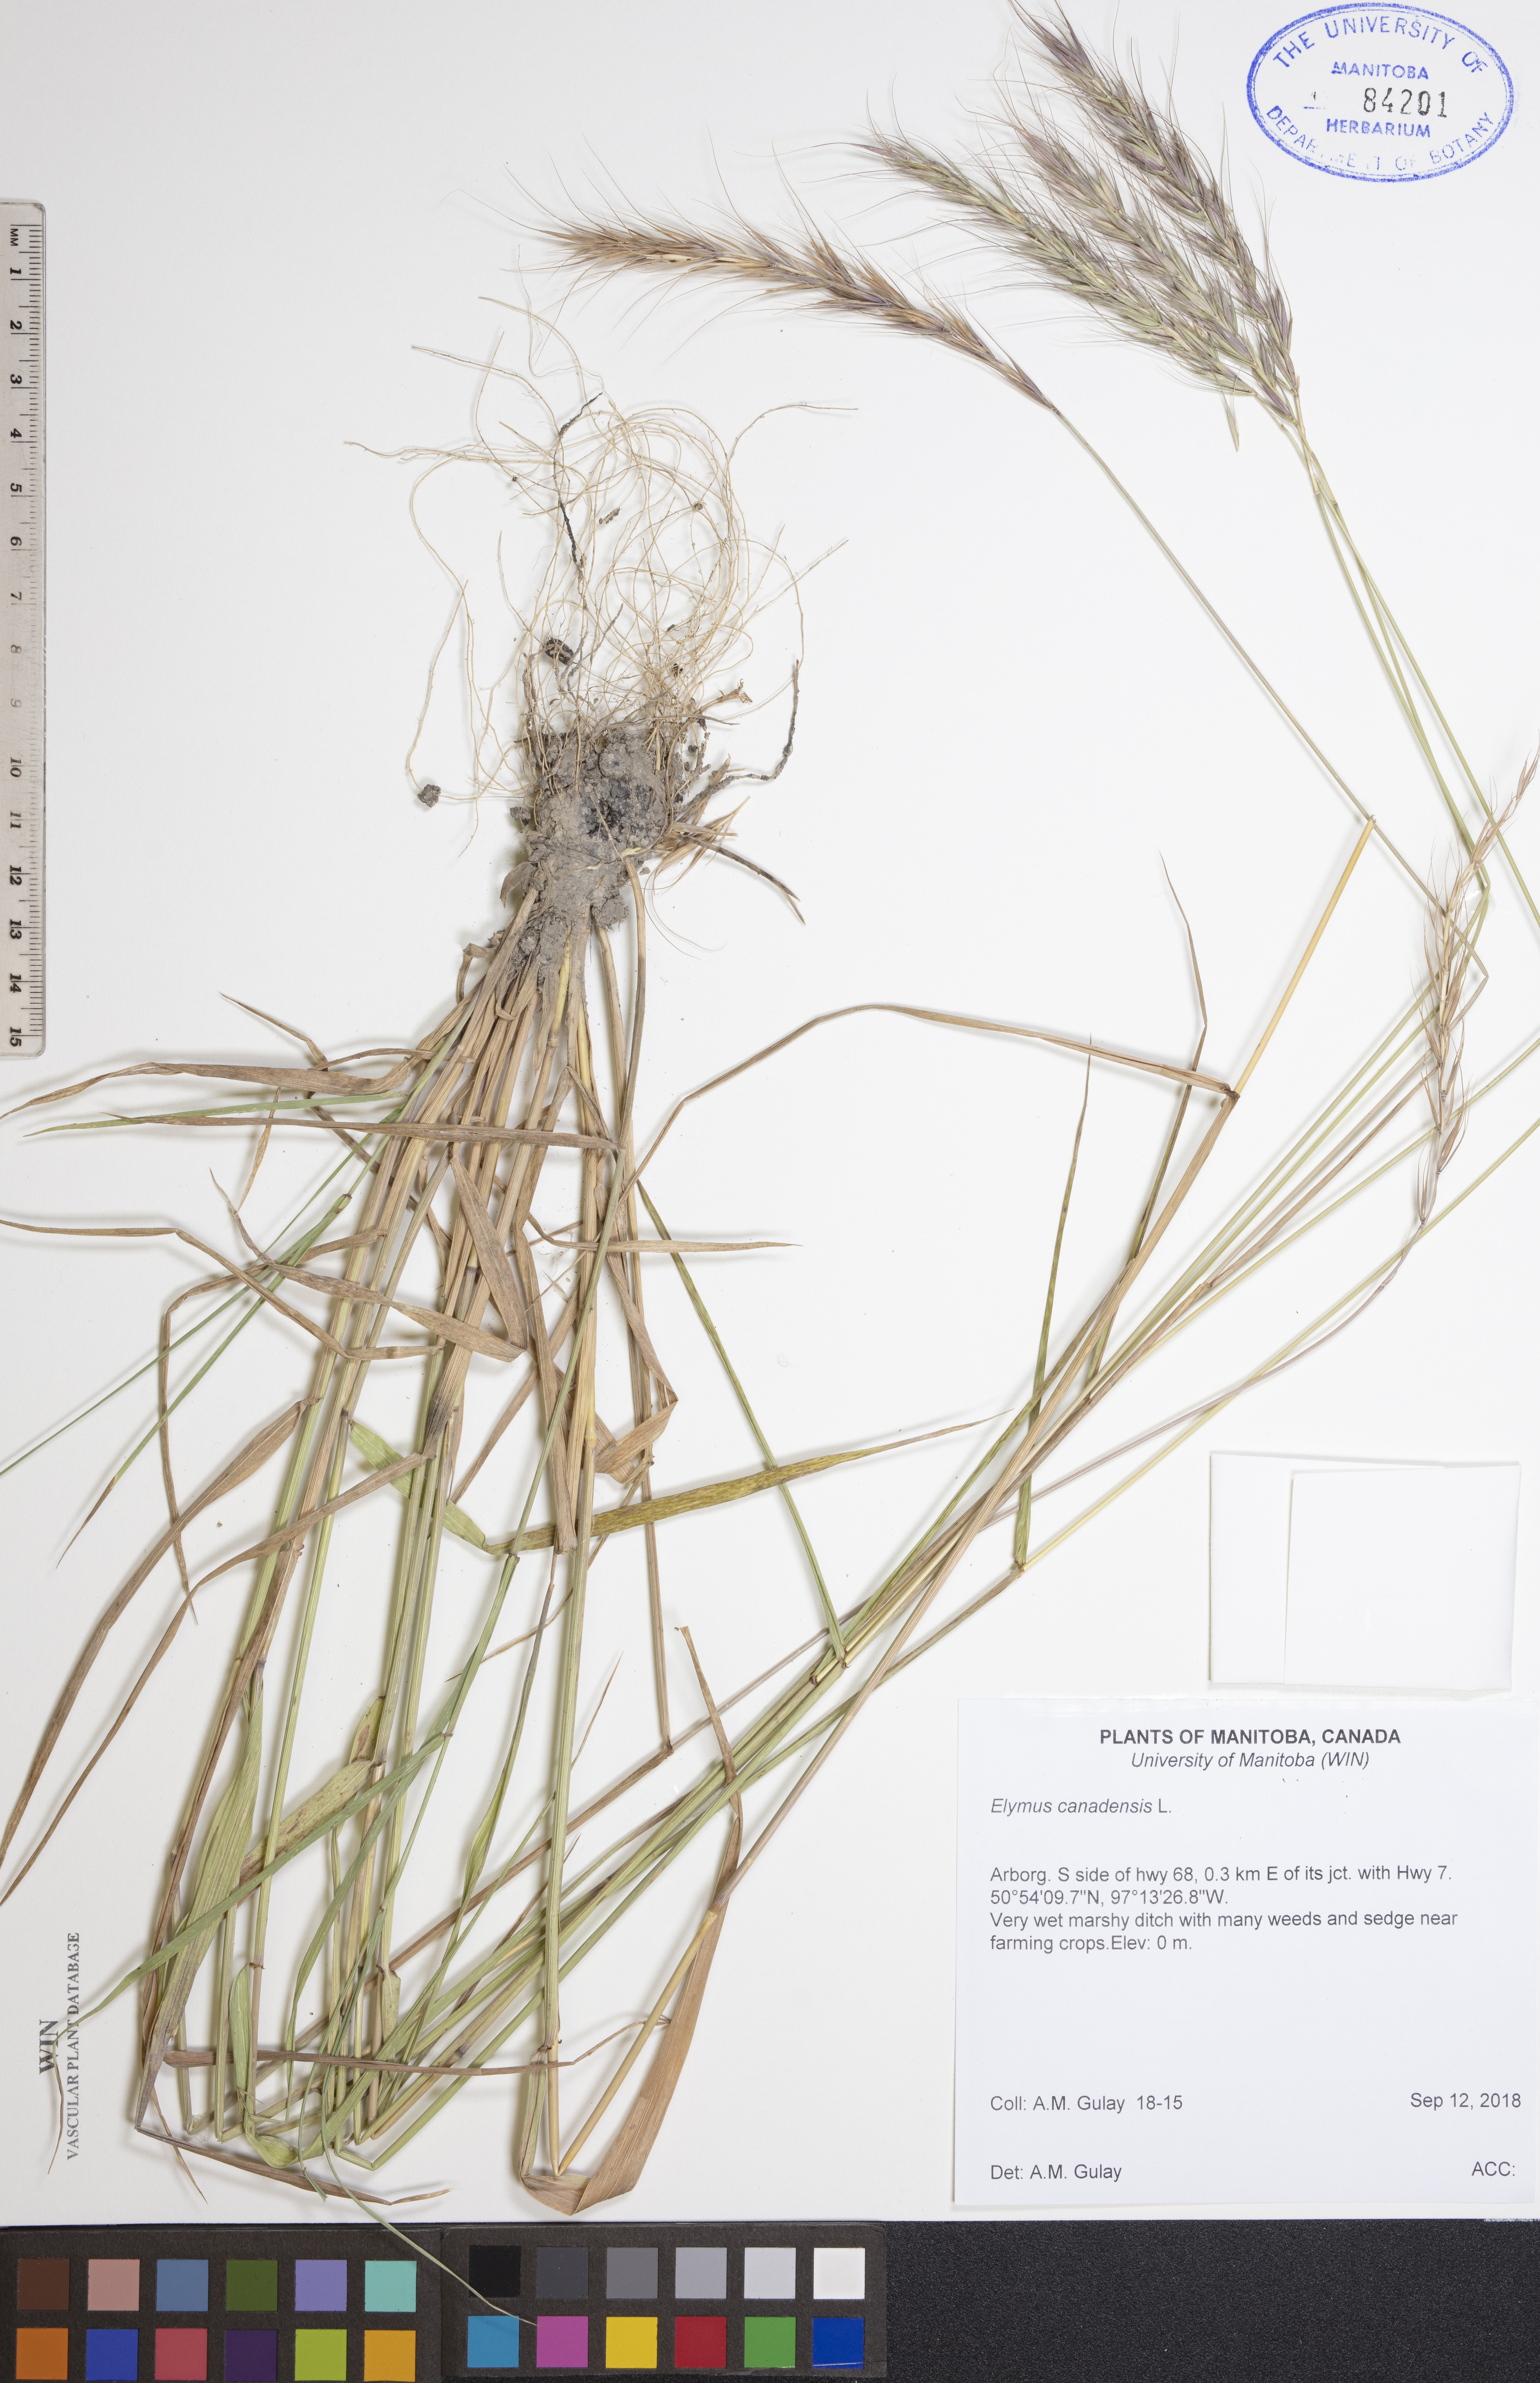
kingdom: Plantae
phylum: Tracheophyta
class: Liliopsida
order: Poales
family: Poaceae
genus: Elymus
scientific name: Elymus canadensis
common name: Canada wild rye
